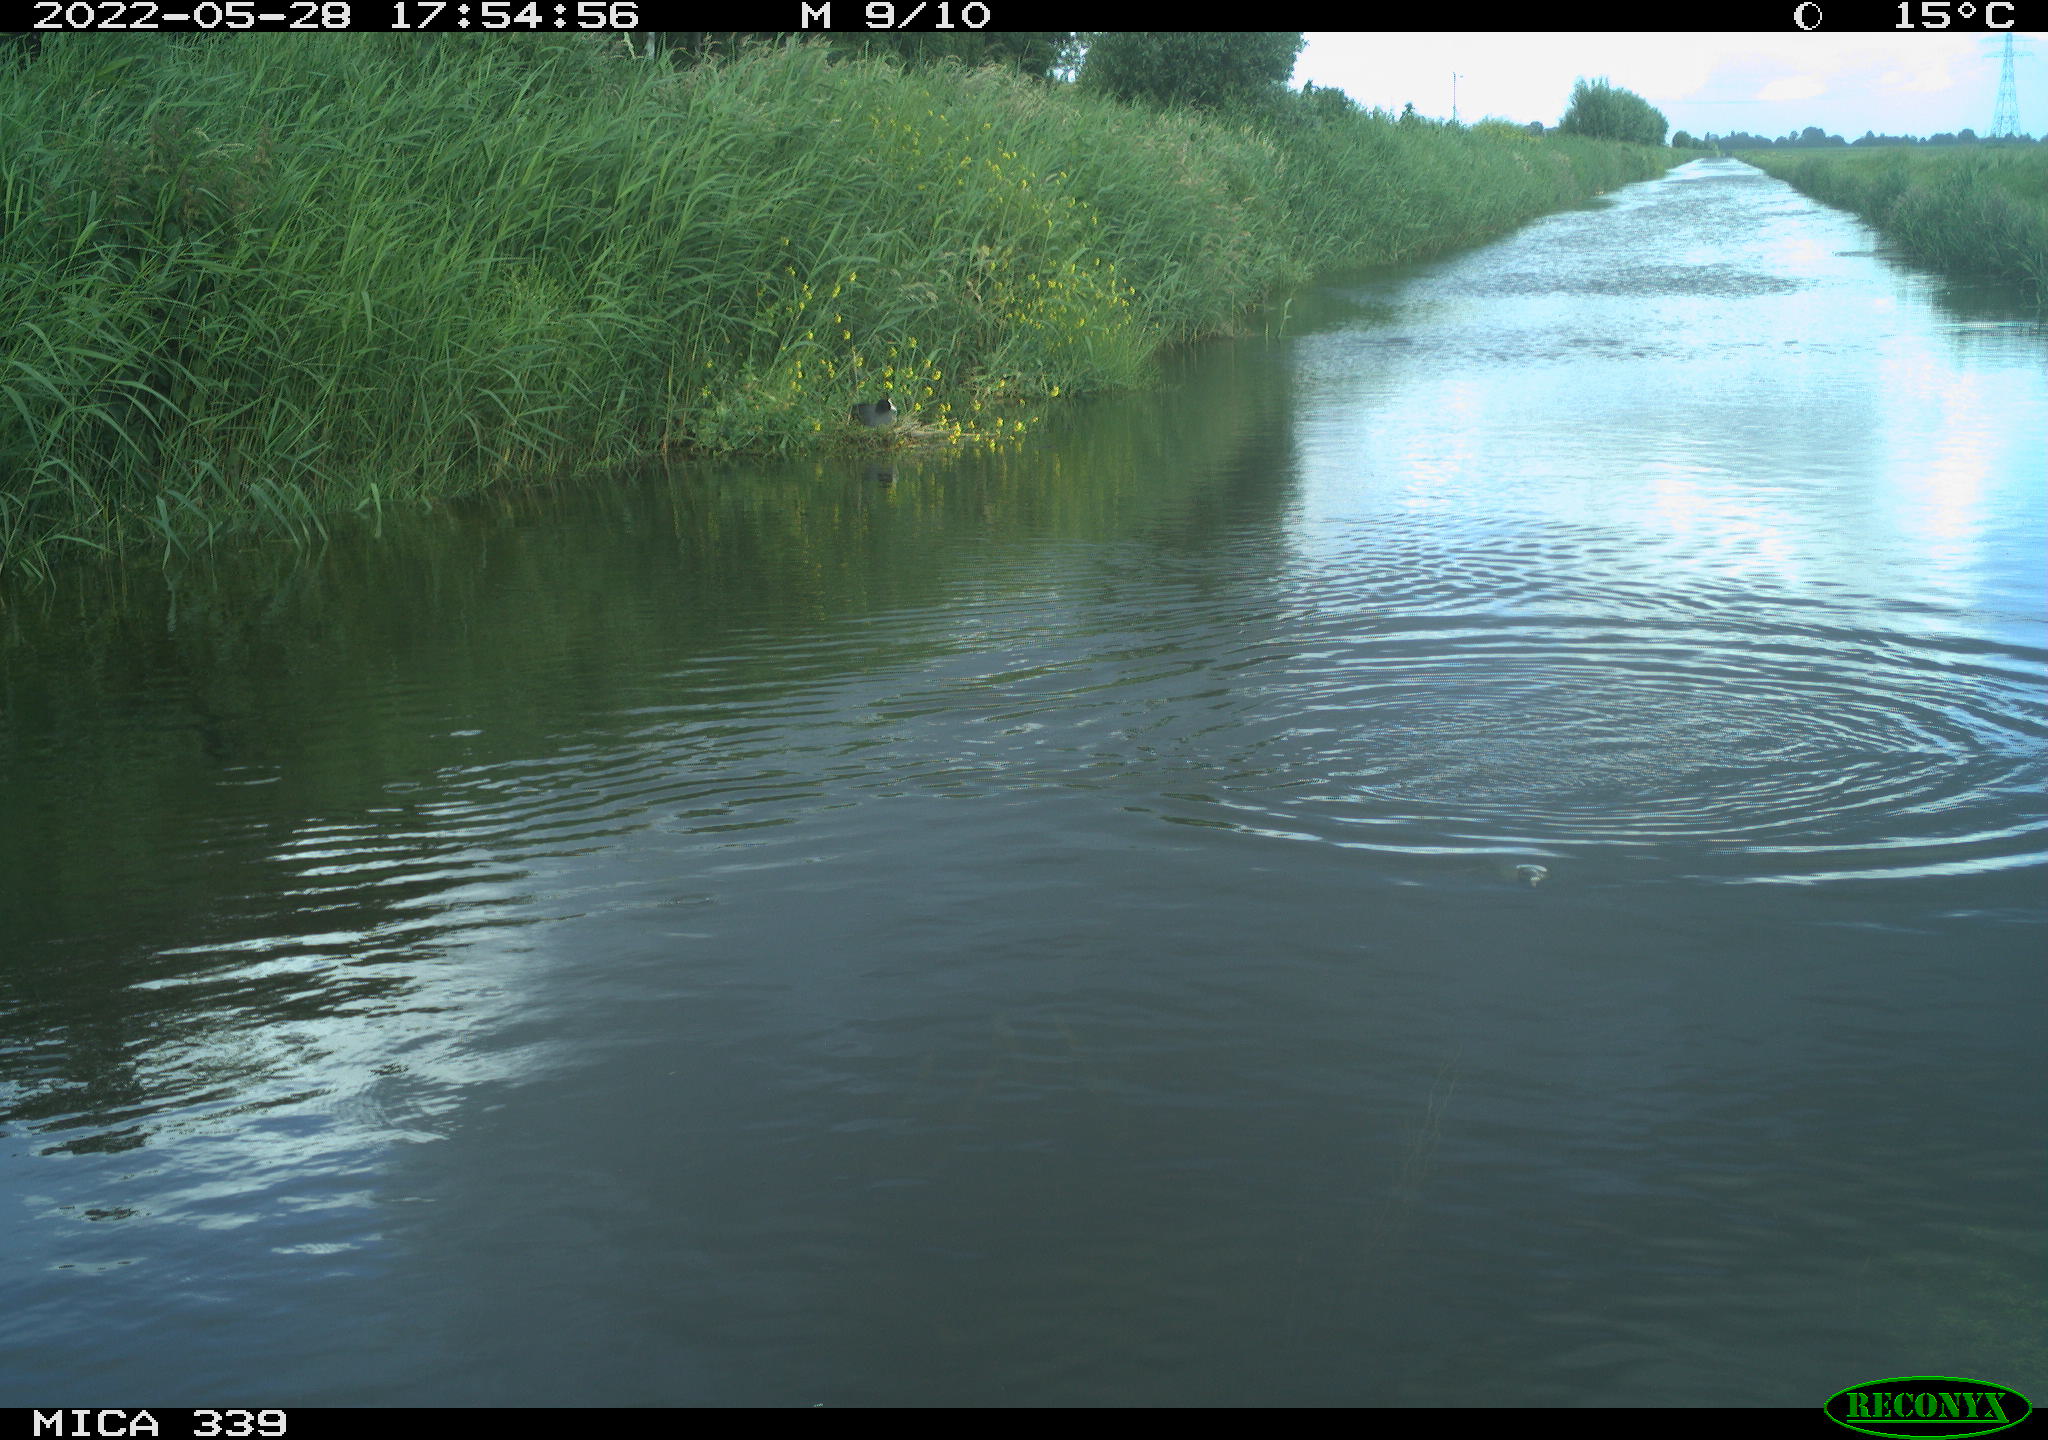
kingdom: Animalia
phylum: Chordata
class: Aves
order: Gruiformes
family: Rallidae
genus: Fulica
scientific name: Fulica atra
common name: Eurasian coot
